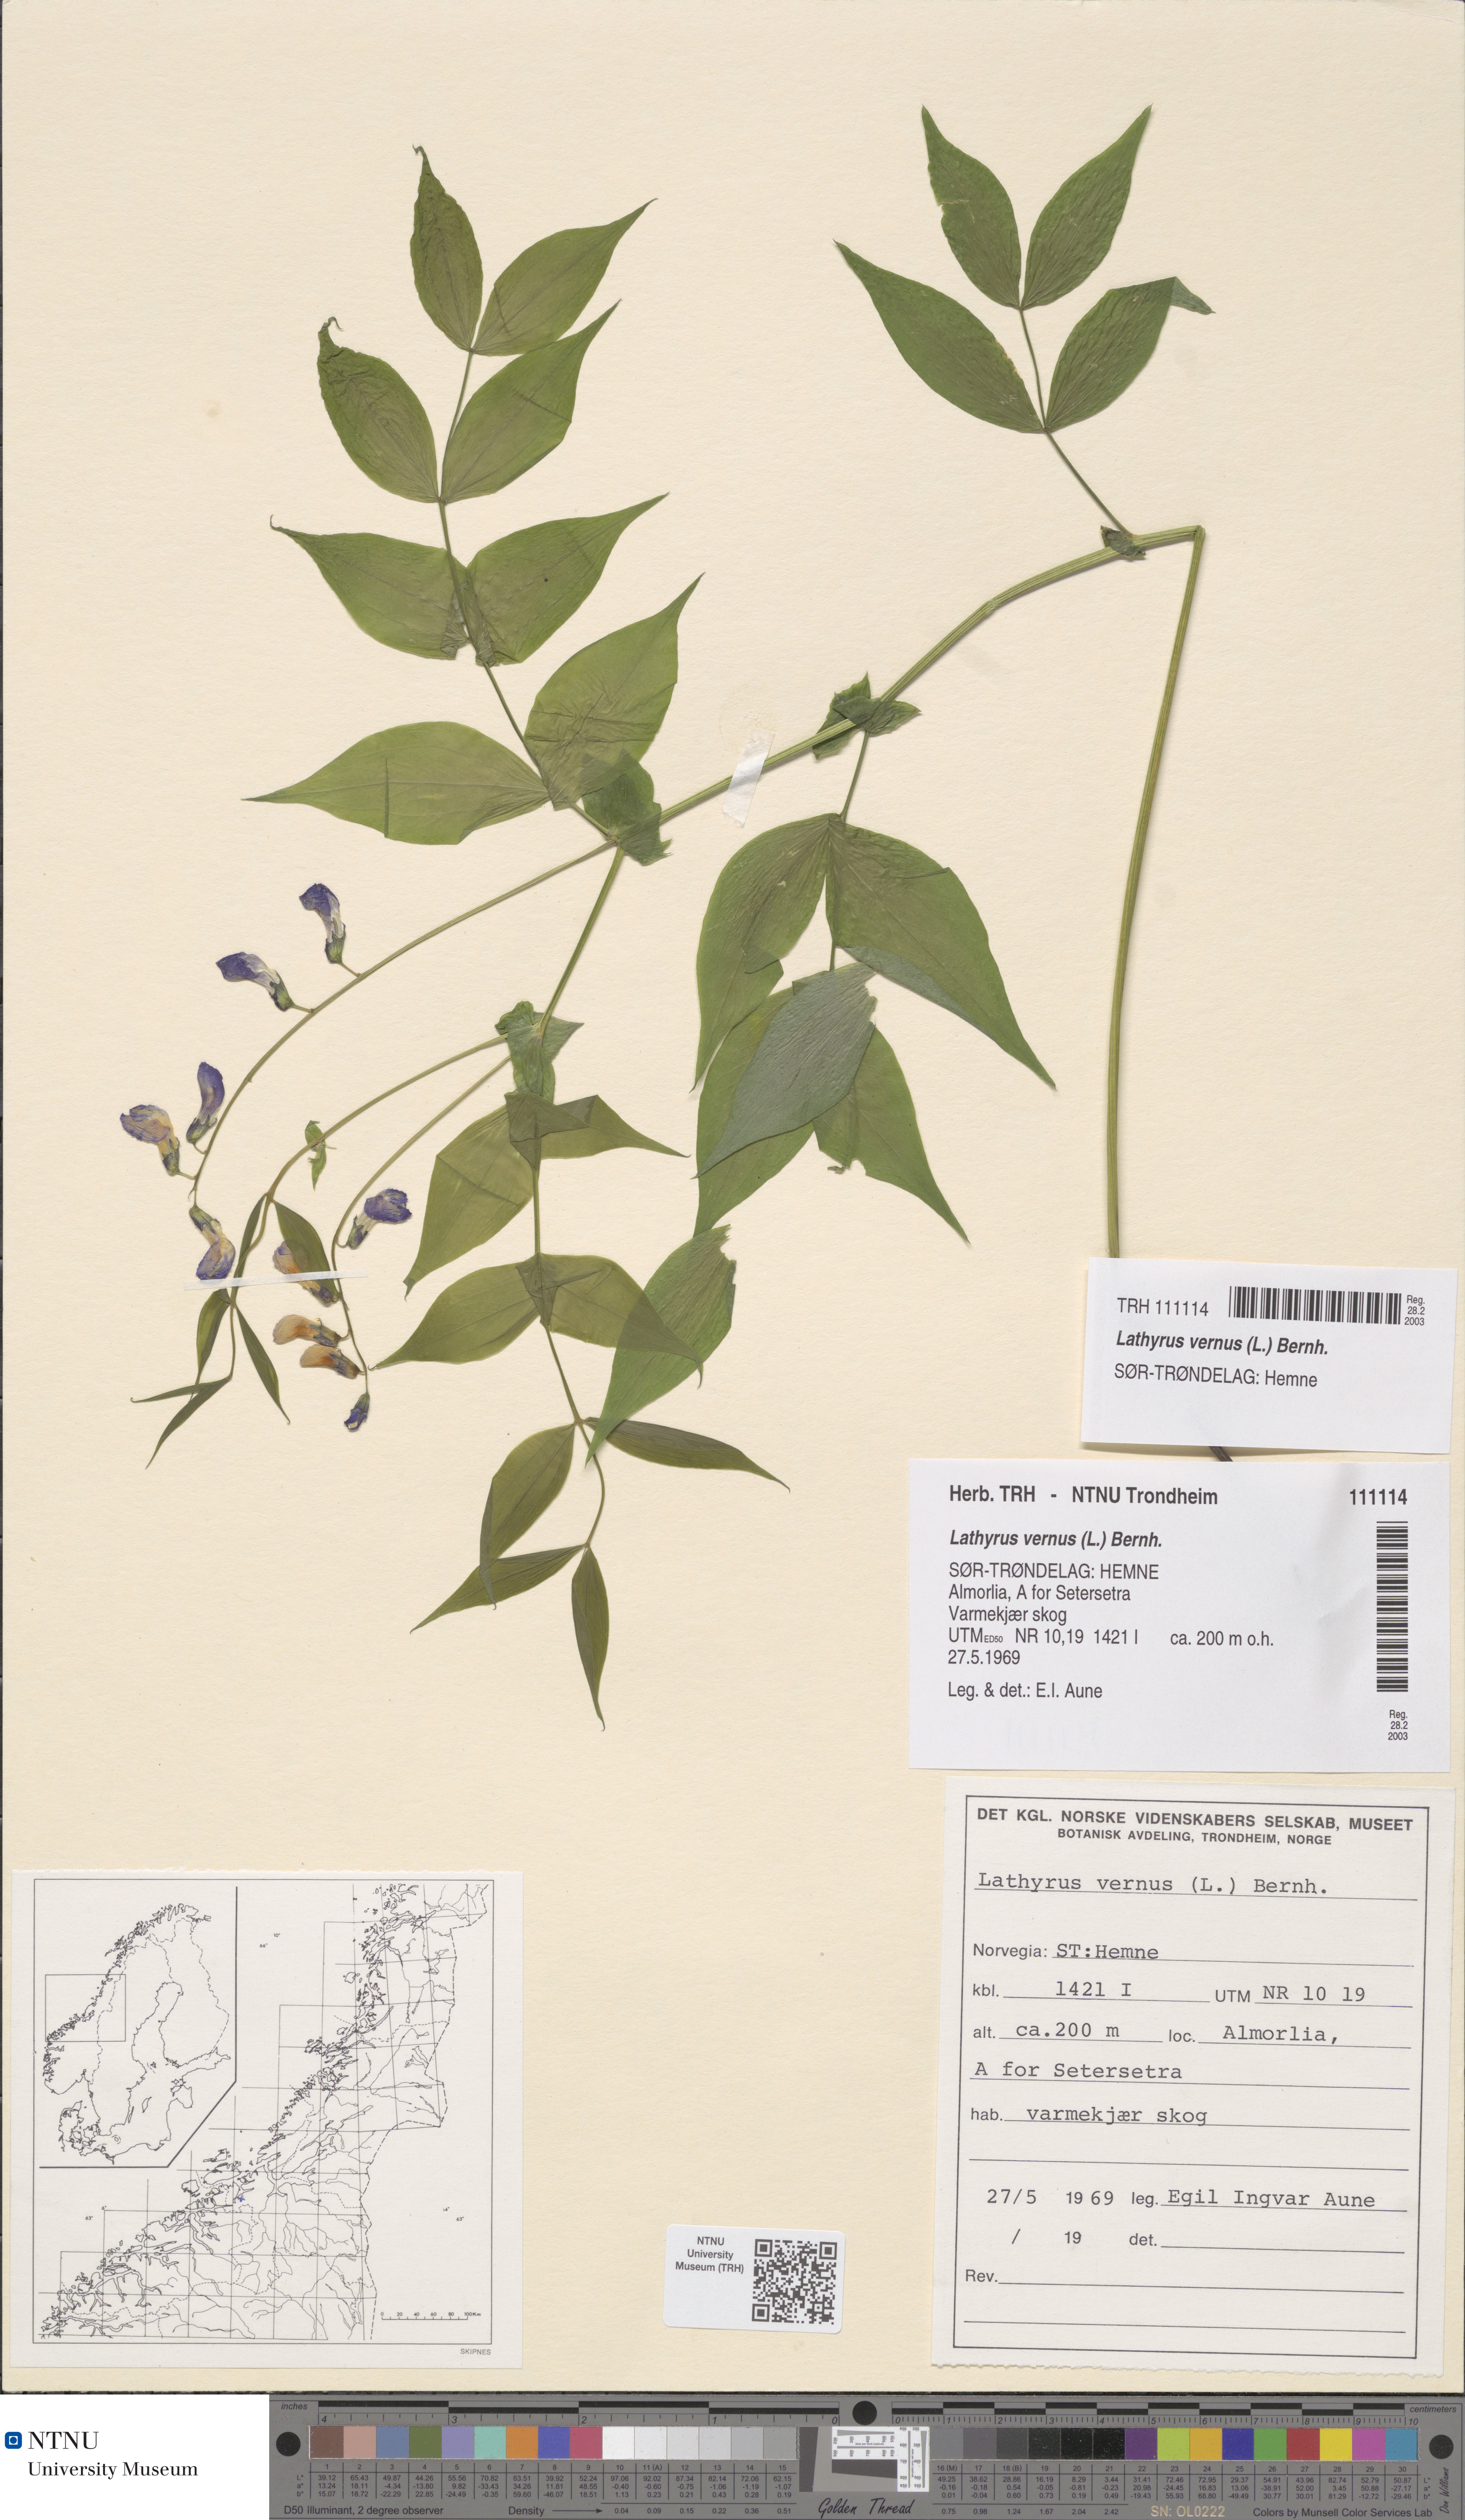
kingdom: Plantae
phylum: Tracheophyta
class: Magnoliopsida
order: Fabales
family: Fabaceae
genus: Lathyrus
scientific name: Lathyrus vernus
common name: Spring pea
